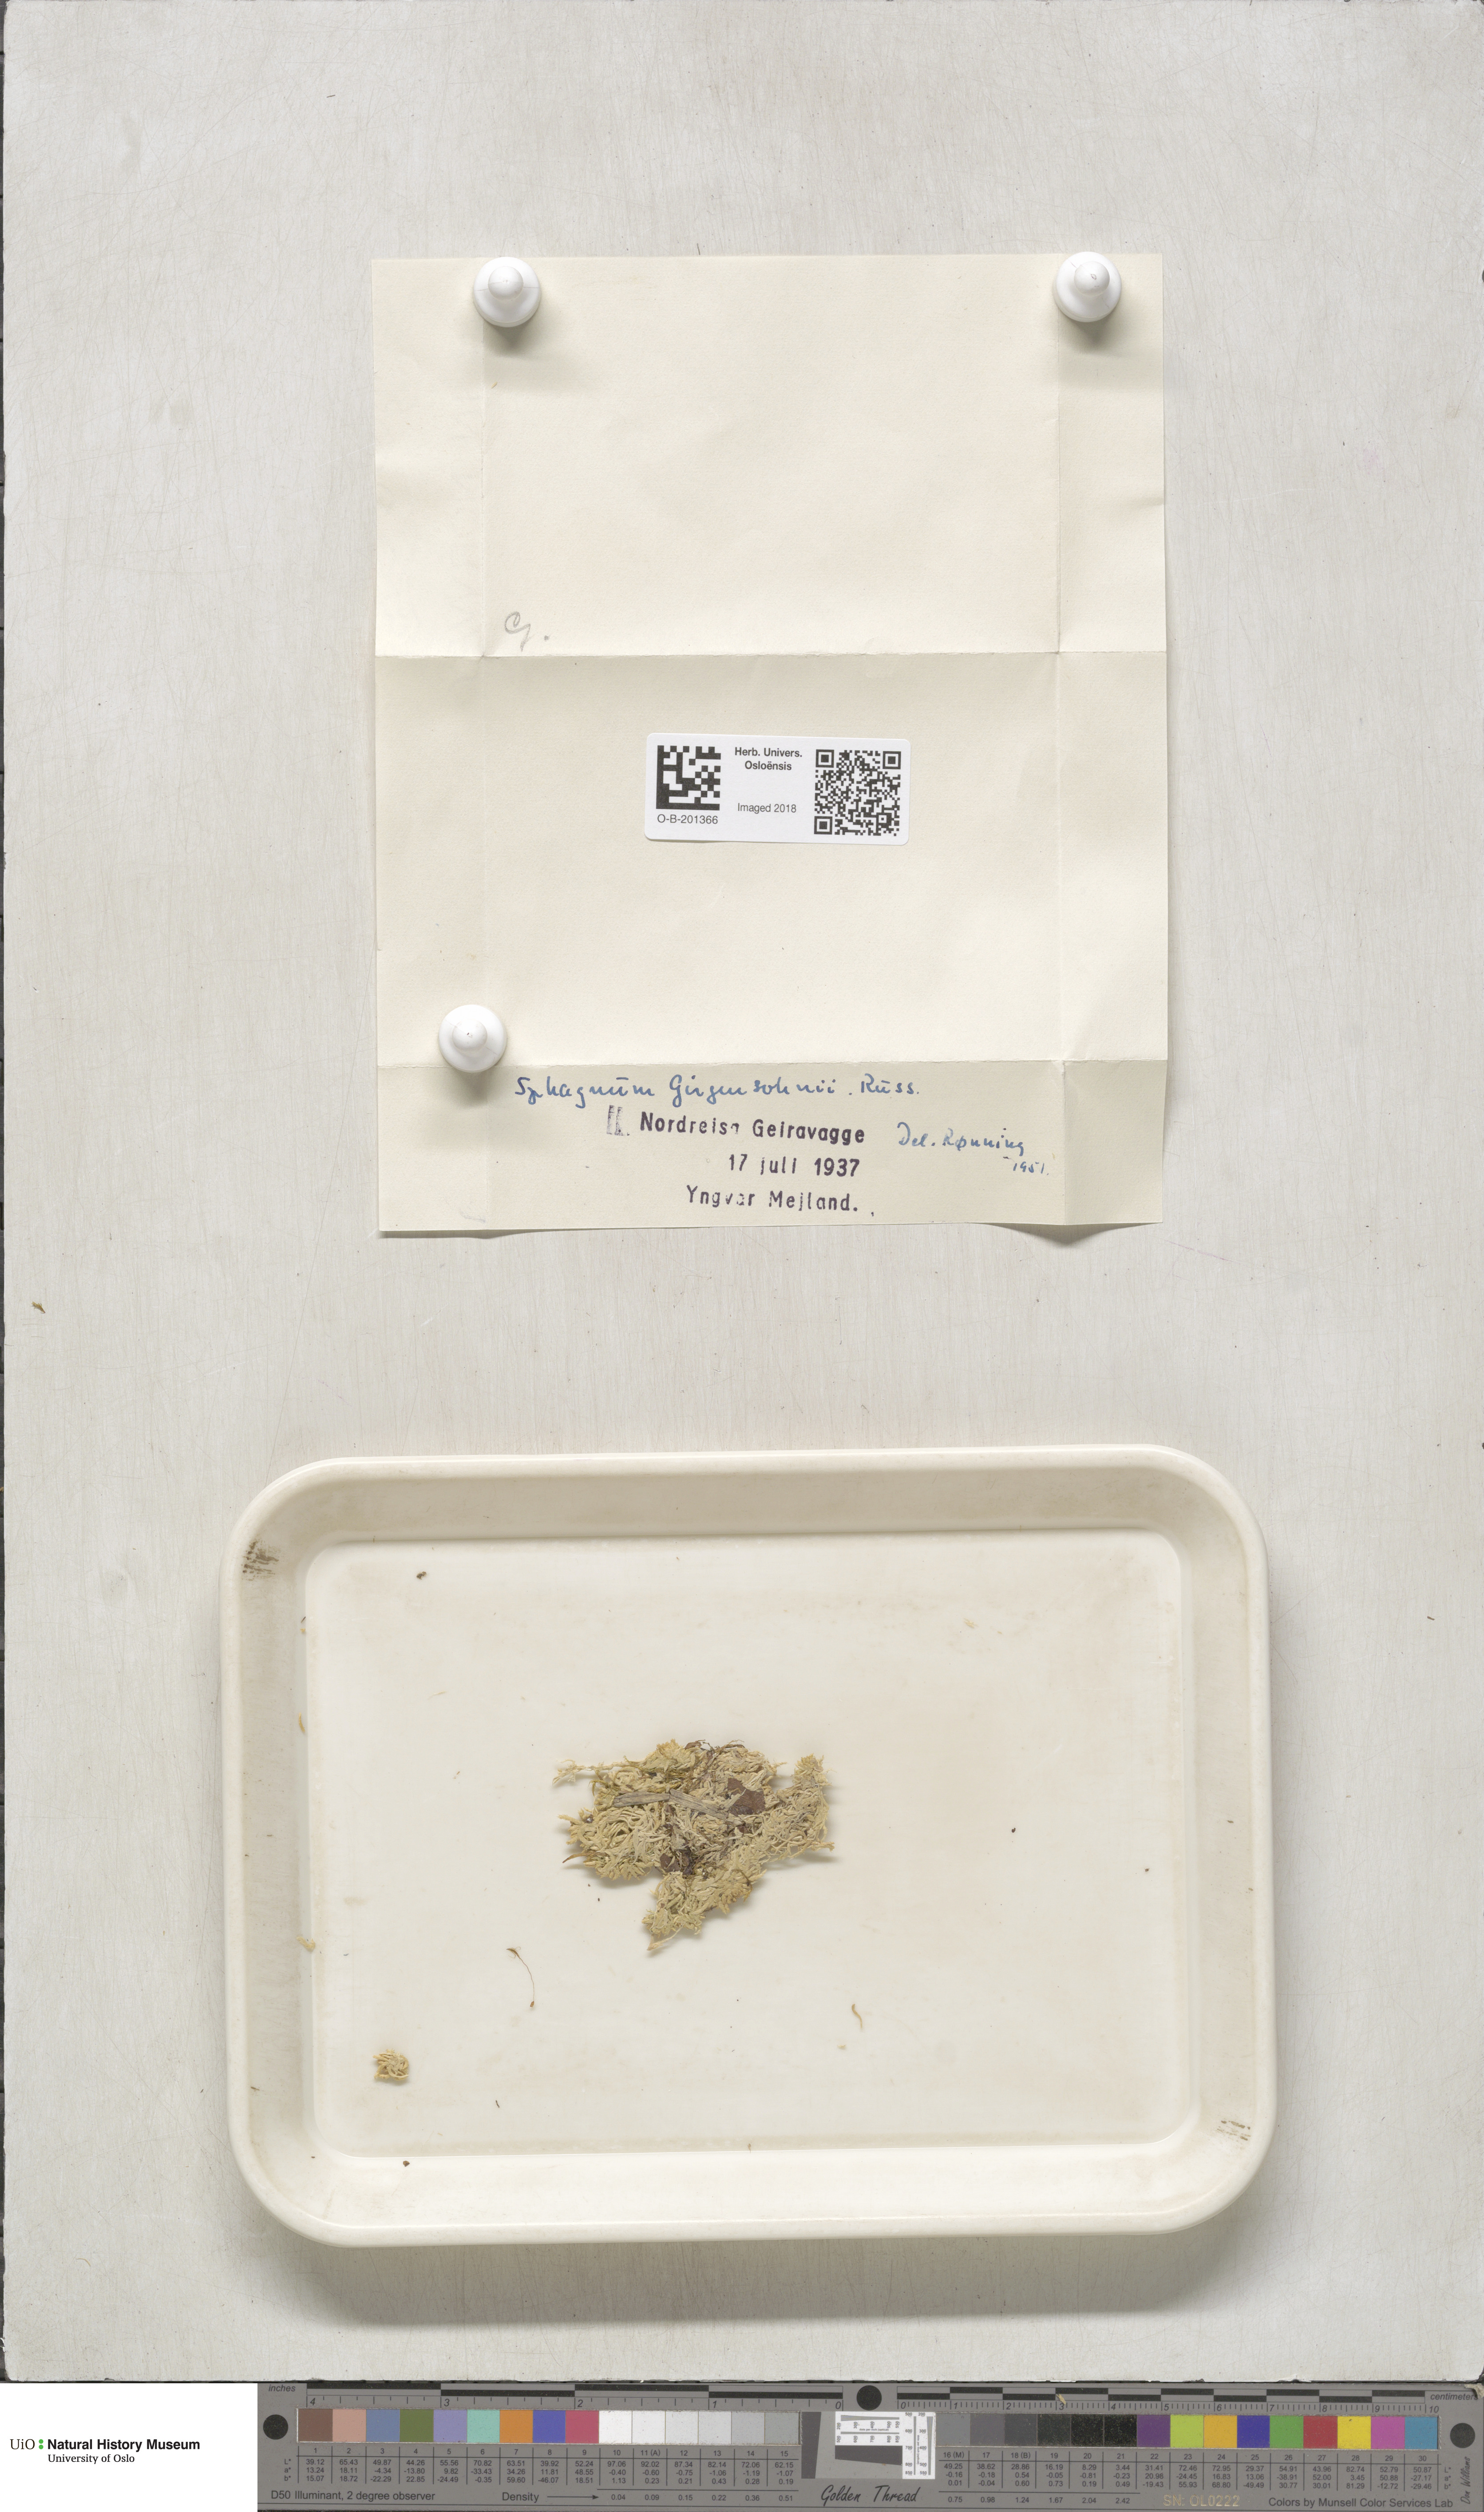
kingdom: Plantae
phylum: Bryophyta
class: Sphagnopsida
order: Sphagnales
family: Sphagnaceae
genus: Sphagnum
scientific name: Sphagnum girgensohnii
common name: Girgensohn's peat moss
